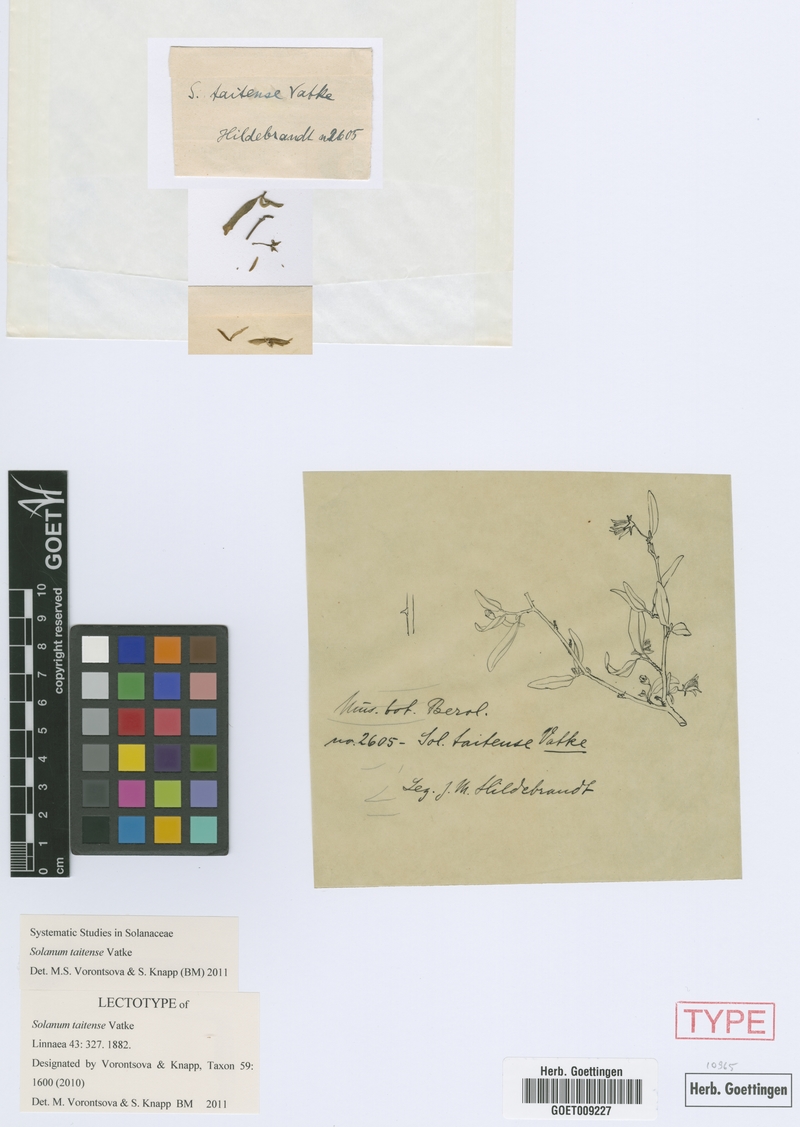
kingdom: Plantae
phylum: Tracheophyta
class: Magnoliopsida
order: Solanales
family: Solanaceae
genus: Solanum
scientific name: Solanum taitense
